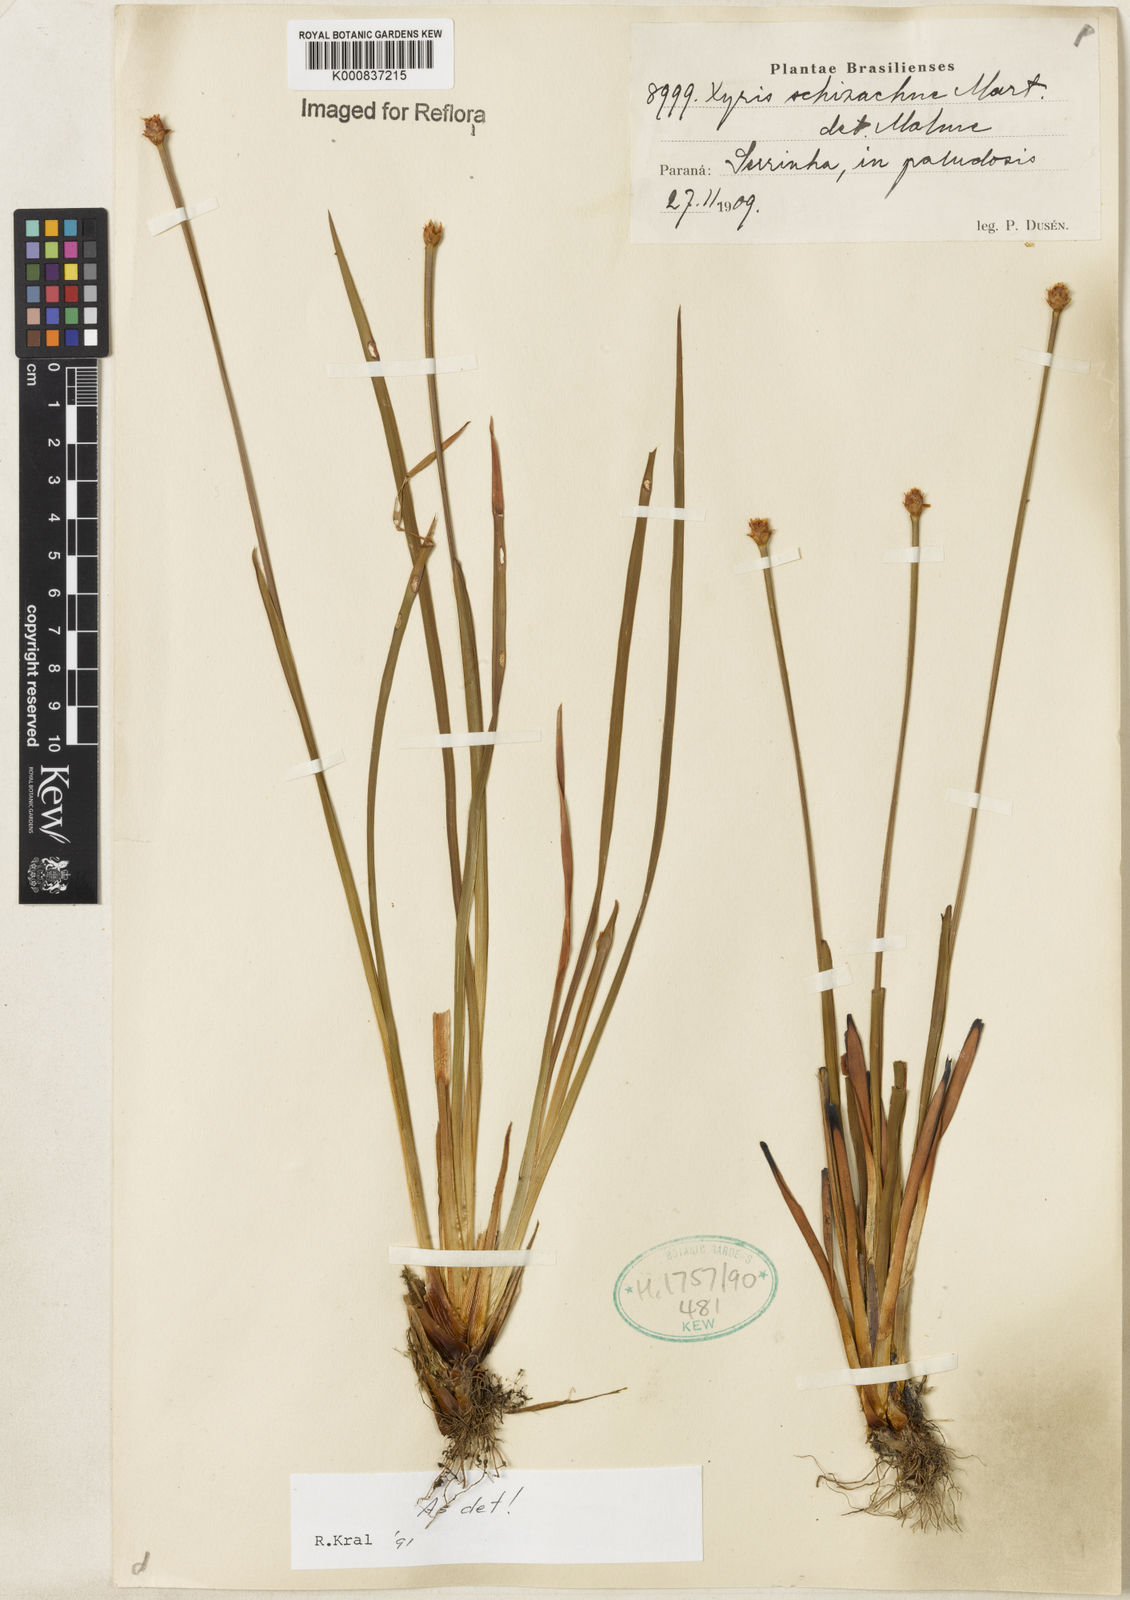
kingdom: Plantae
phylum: Tracheophyta
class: Liliopsida
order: Poales
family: Xyridaceae
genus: Xyris
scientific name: Xyris schizachne
